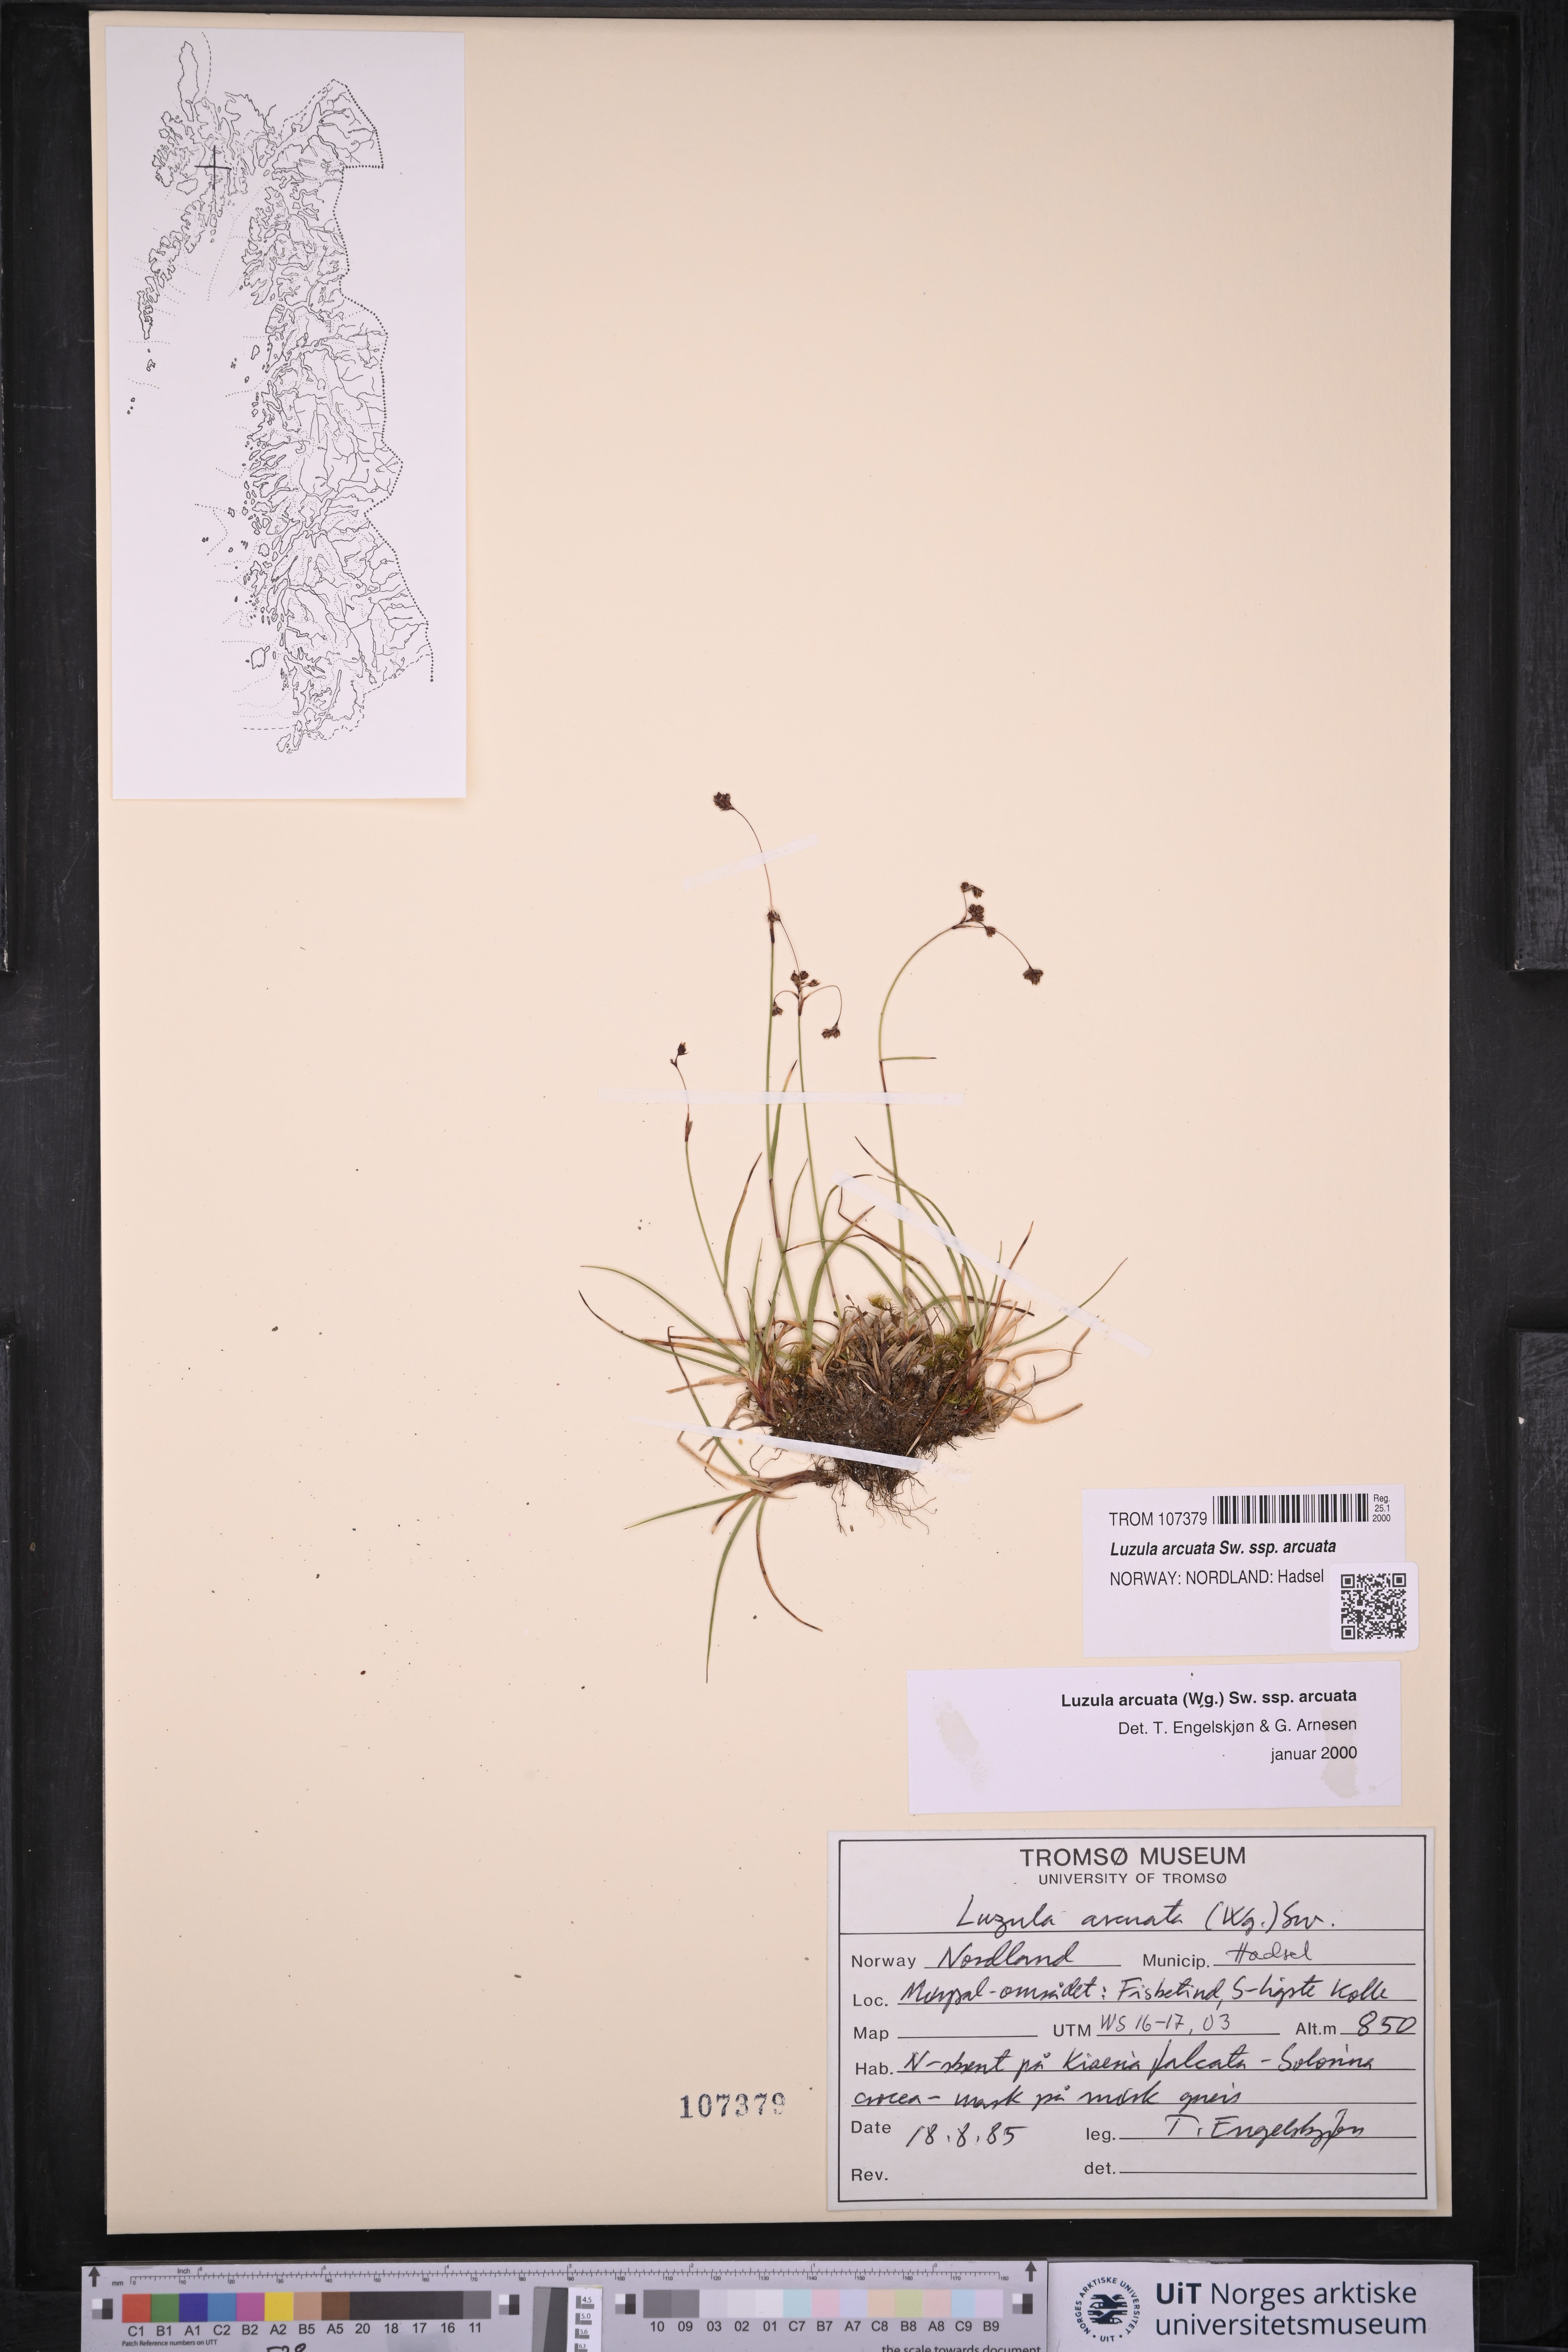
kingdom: Plantae
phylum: Tracheophyta
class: Liliopsida
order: Poales
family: Juncaceae
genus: Luzula
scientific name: Luzula arcuata
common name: Curved wood-rush
